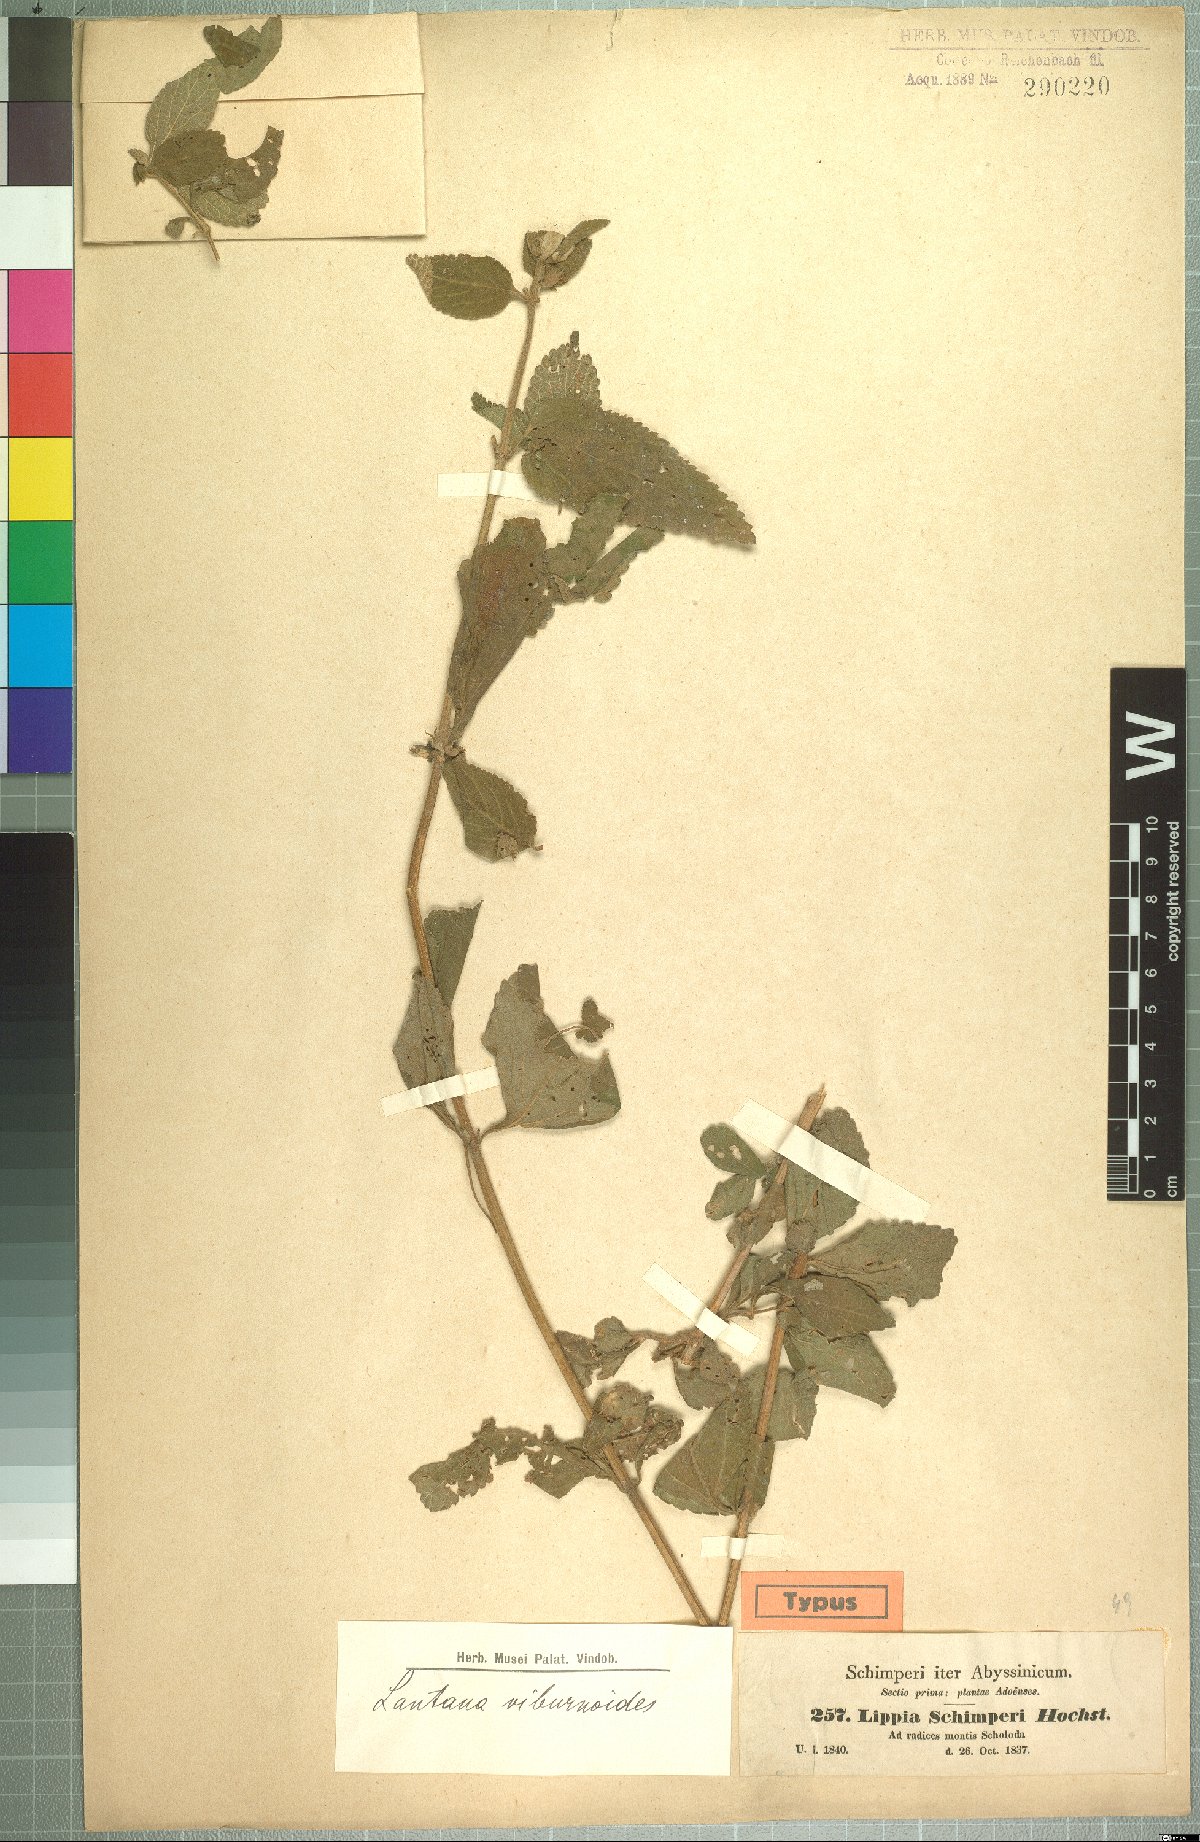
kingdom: Plantae
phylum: Tracheophyta
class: Magnoliopsida
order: Lamiales
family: Verbenaceae
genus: Lantana
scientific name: Lantana ukambensis
